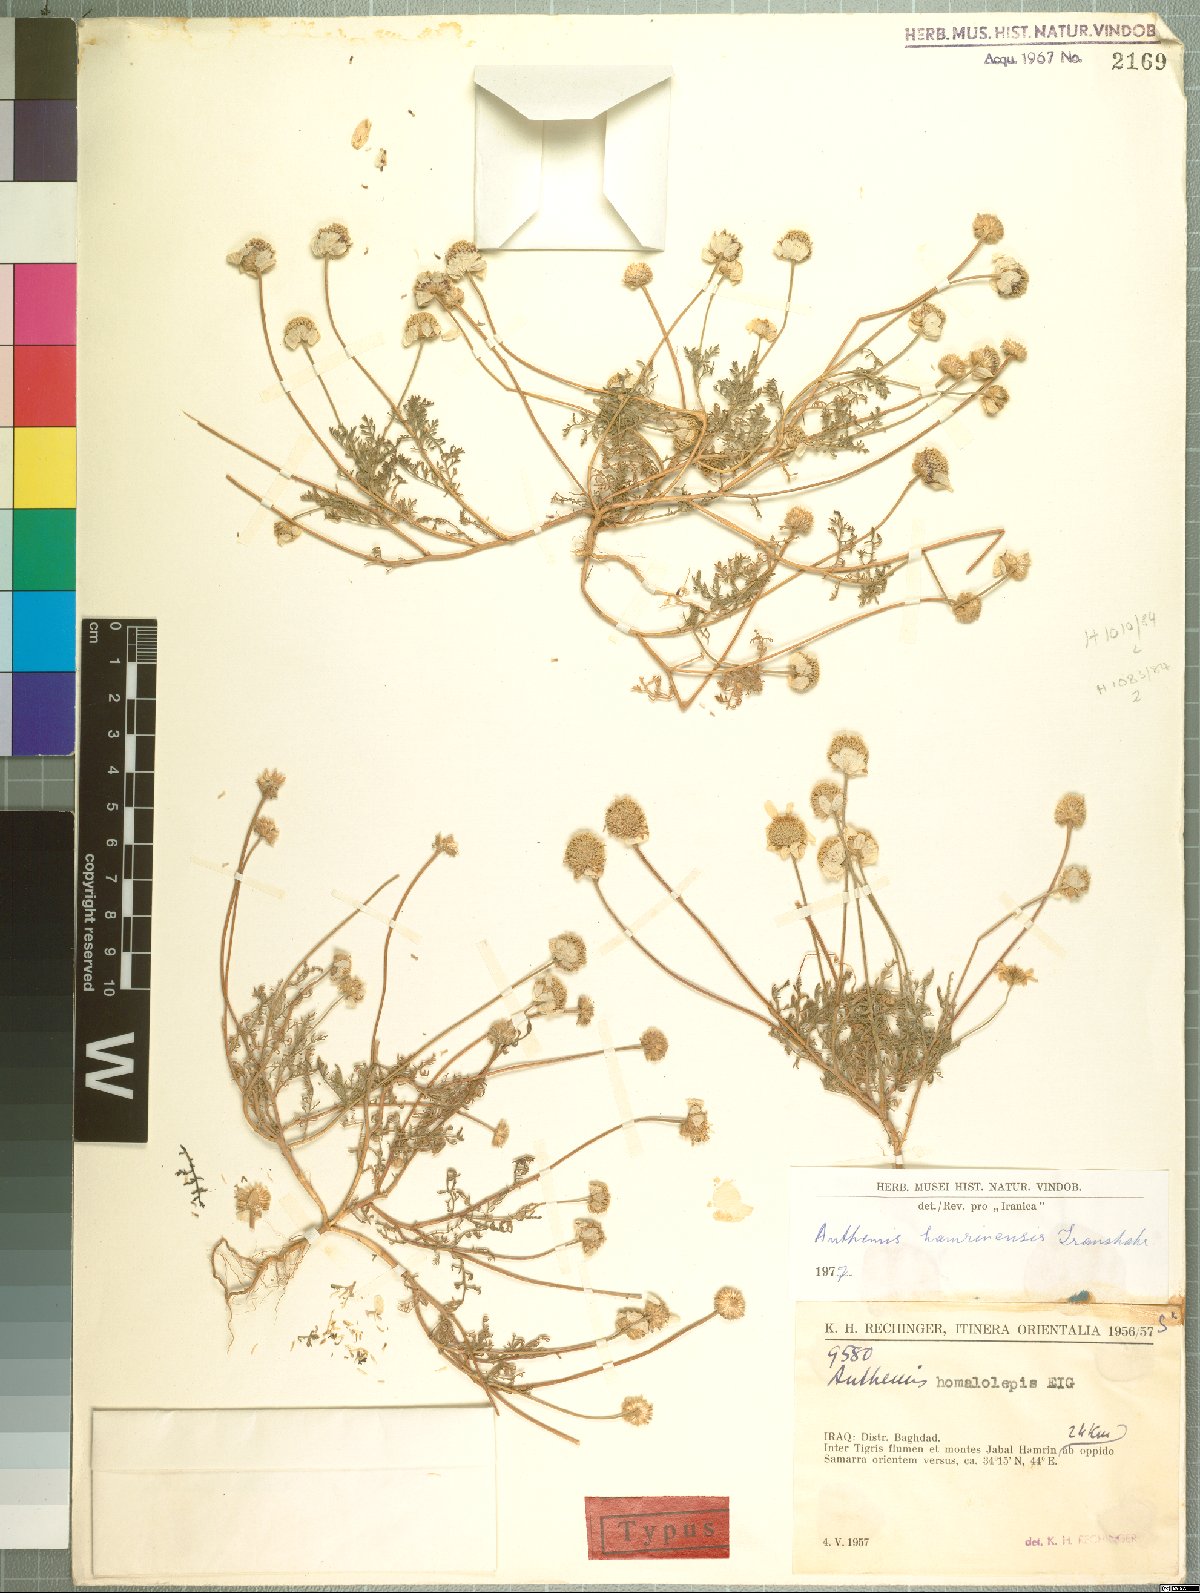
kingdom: Plantae
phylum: Tracheophyta
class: Magnoliopsida
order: Asterales
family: Asteraceae
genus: Anthemis
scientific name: Anthemis hamrinensis
